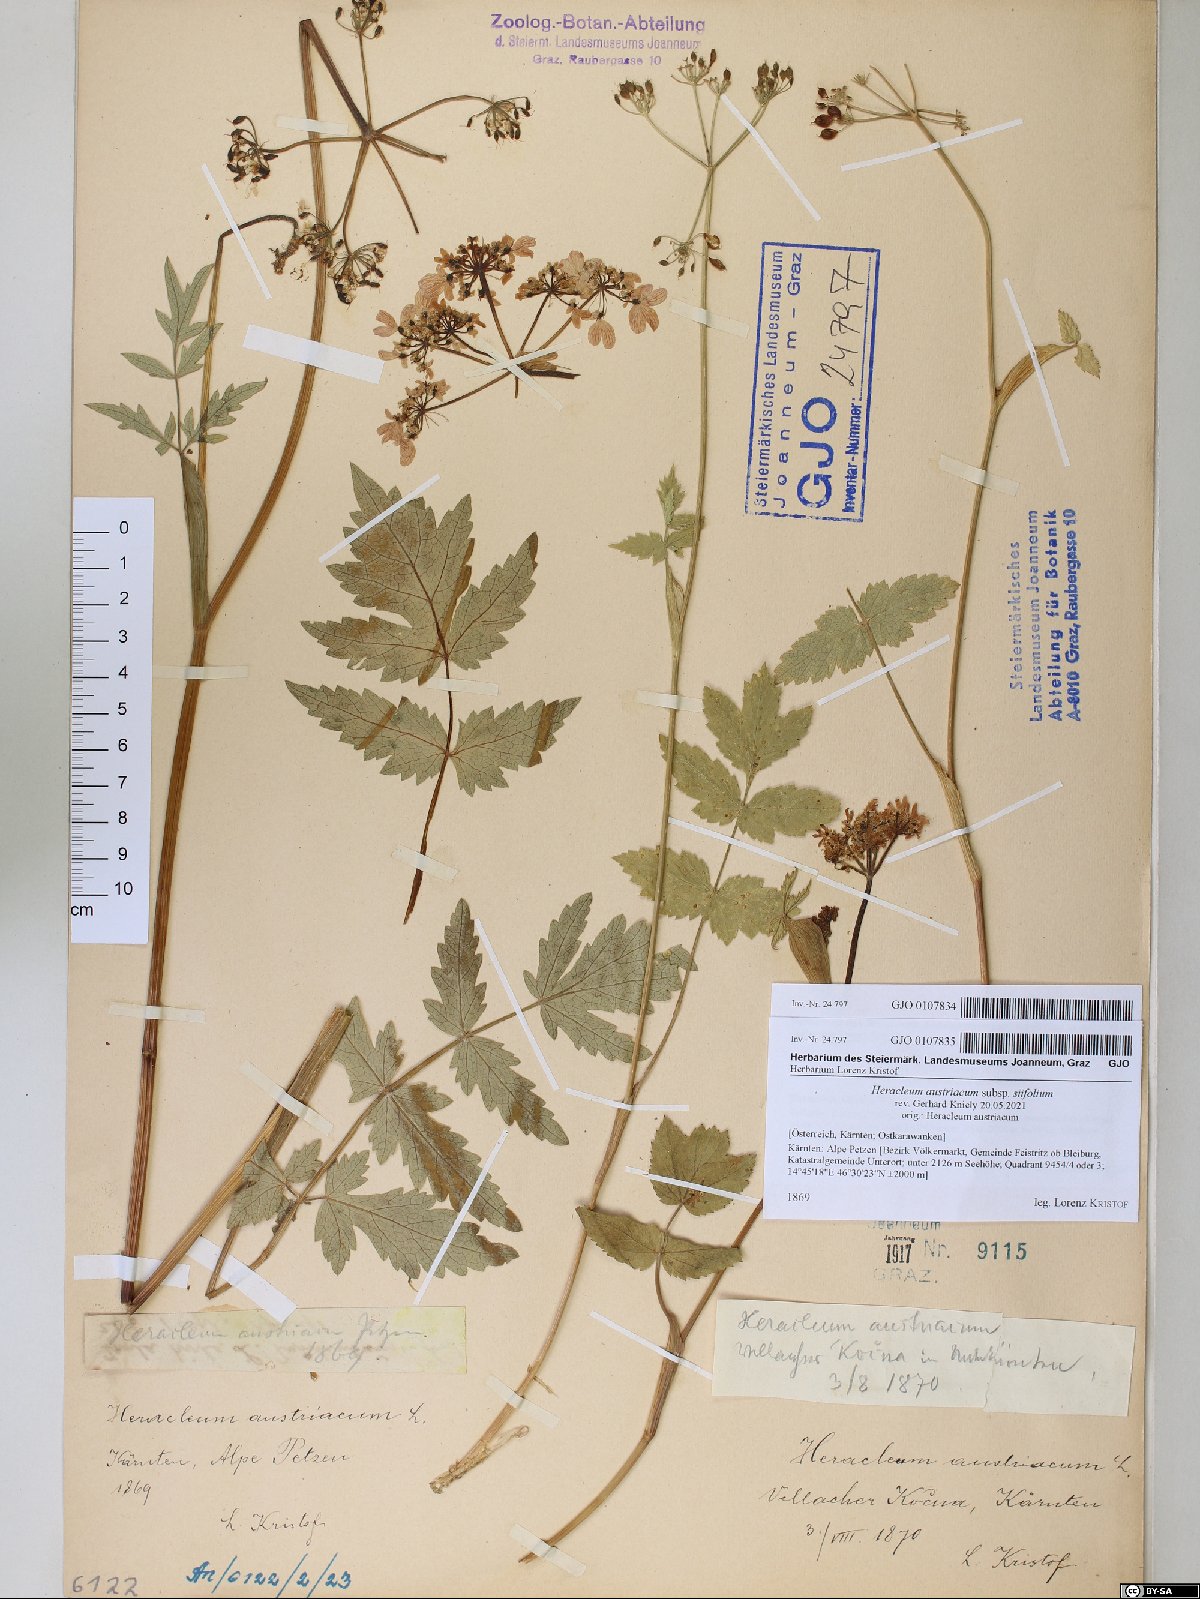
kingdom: Plantae
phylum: Tracheophyta
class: Magnoliopsida
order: Apiales
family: Apiaceae
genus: Heracleum
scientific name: Heracleum austriacum
